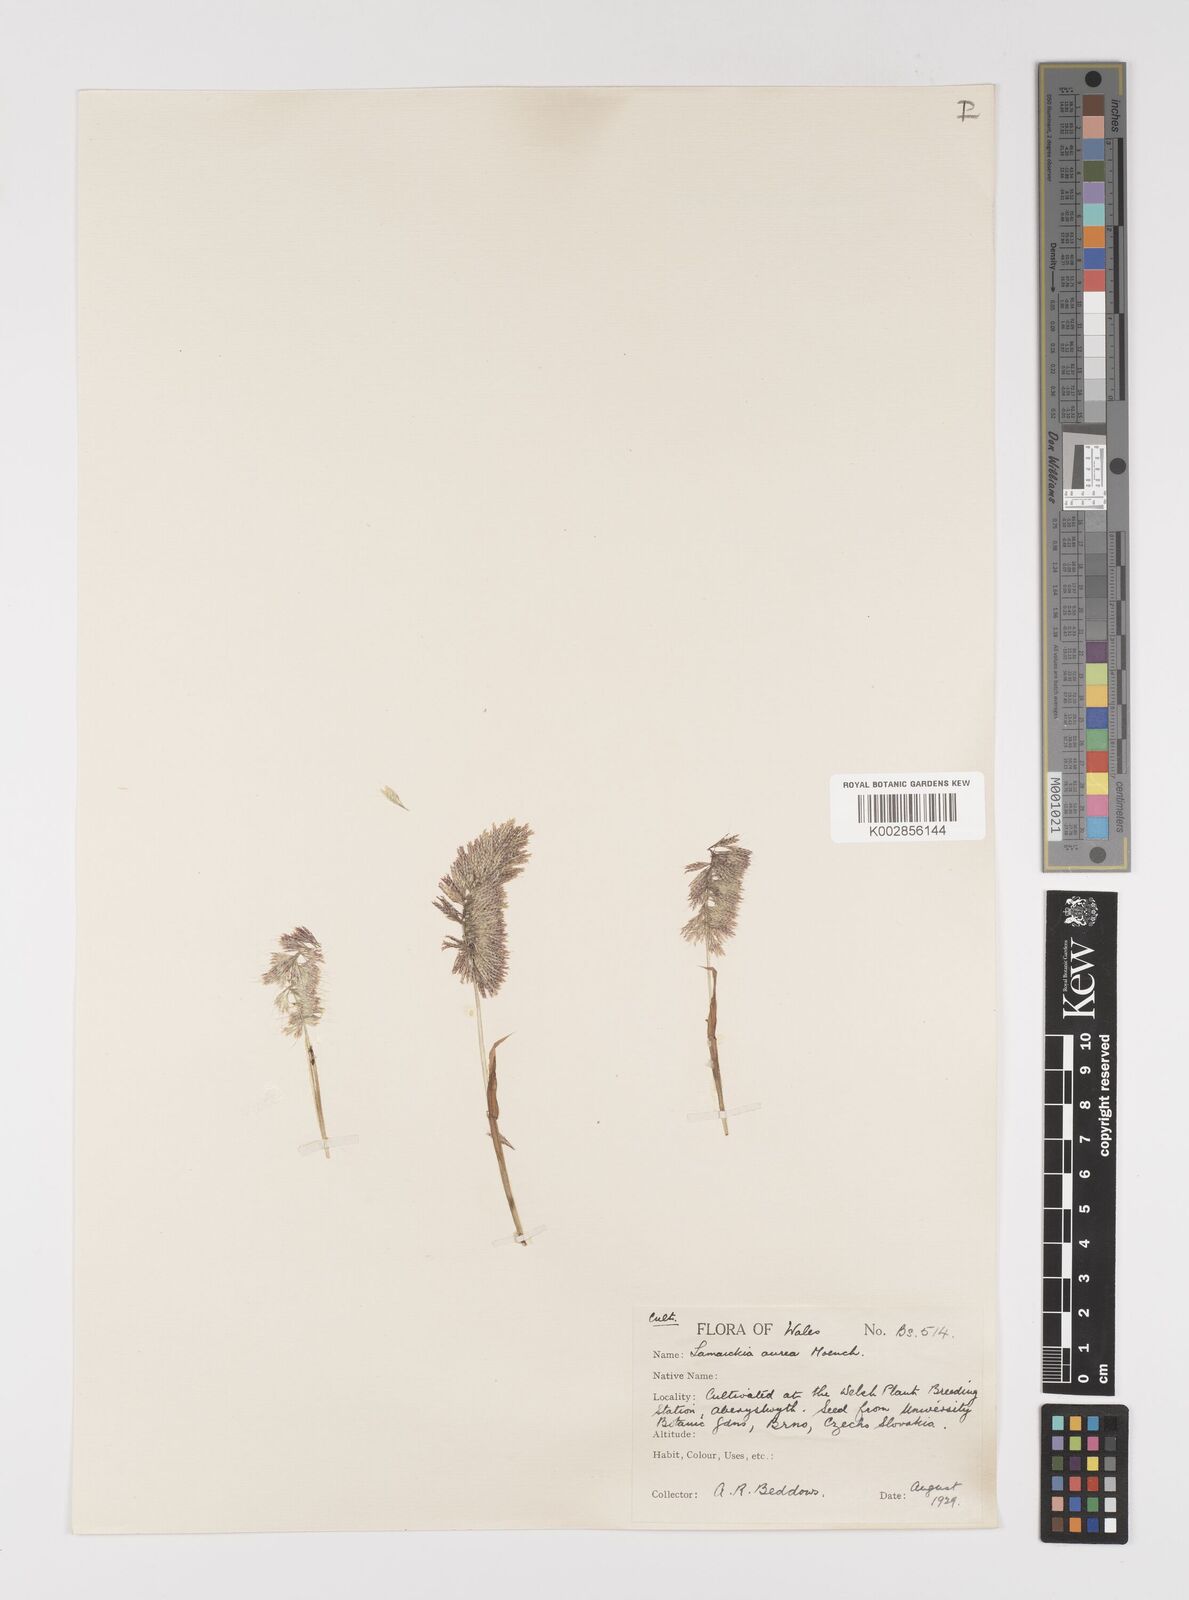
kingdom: Plantae
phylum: Tracheophyta
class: Liliopsida
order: Poales
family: Poaceae
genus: Lamarckia
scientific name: Lamarckia aurea
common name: Golden dog's-tail
